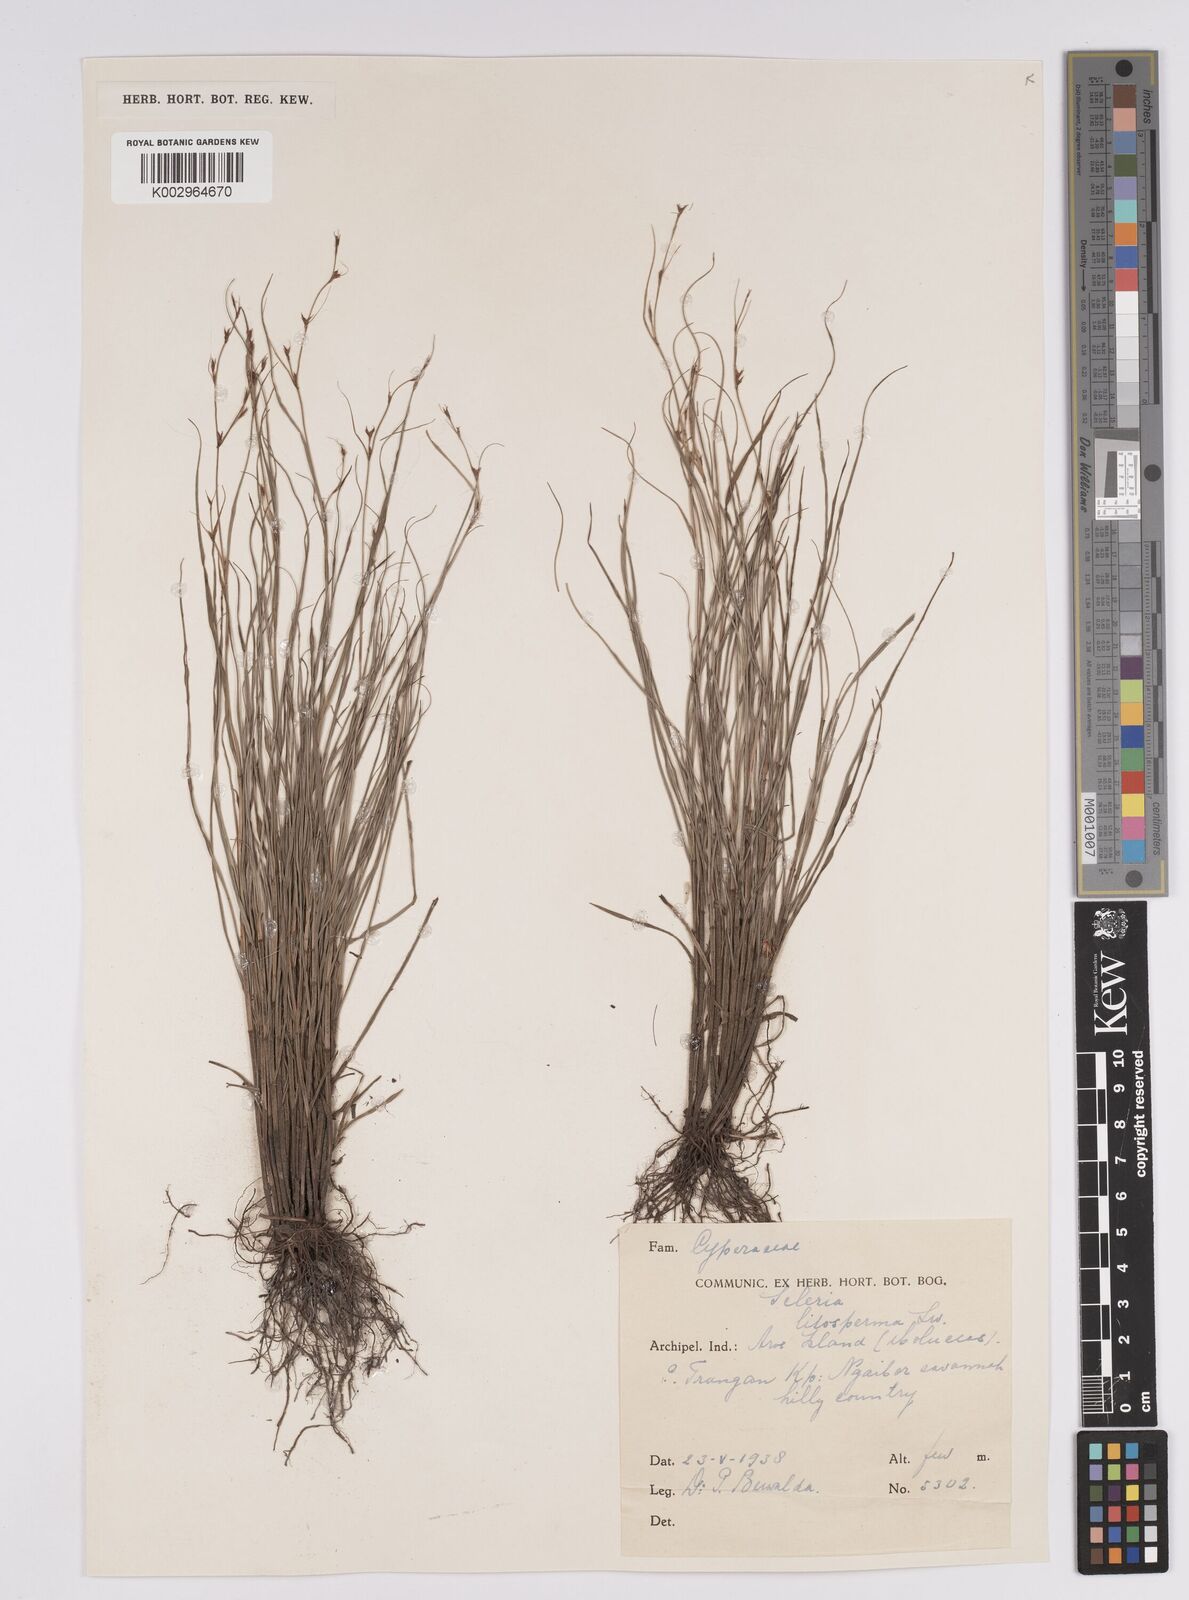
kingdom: Plantae
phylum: Tracheophyta
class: Liliopsida
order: Poales
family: Cyperaceae
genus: Scleria
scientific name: Scleria lithosperma
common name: Florida keys nut-rush
